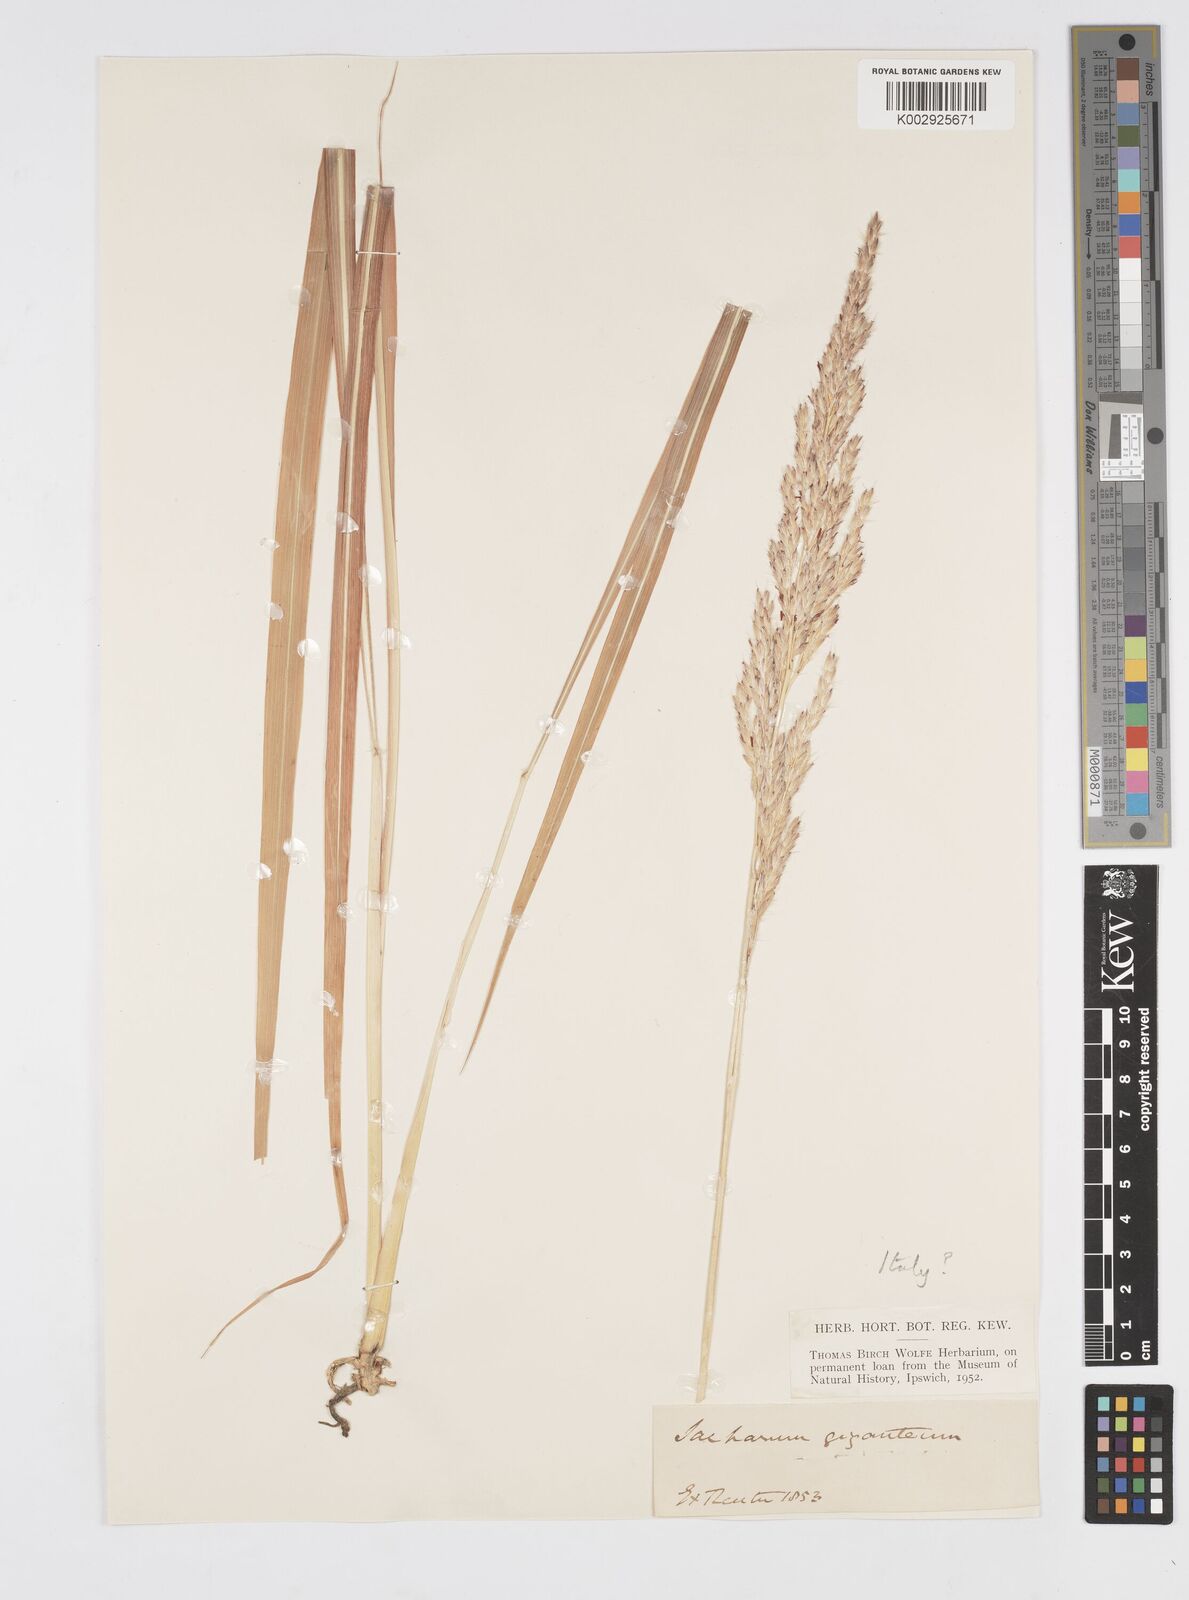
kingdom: Plantae
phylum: Tracheophyta
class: Liliopsida
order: Poales
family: Poaceae
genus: Tripidium
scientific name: Tripidium strictum
